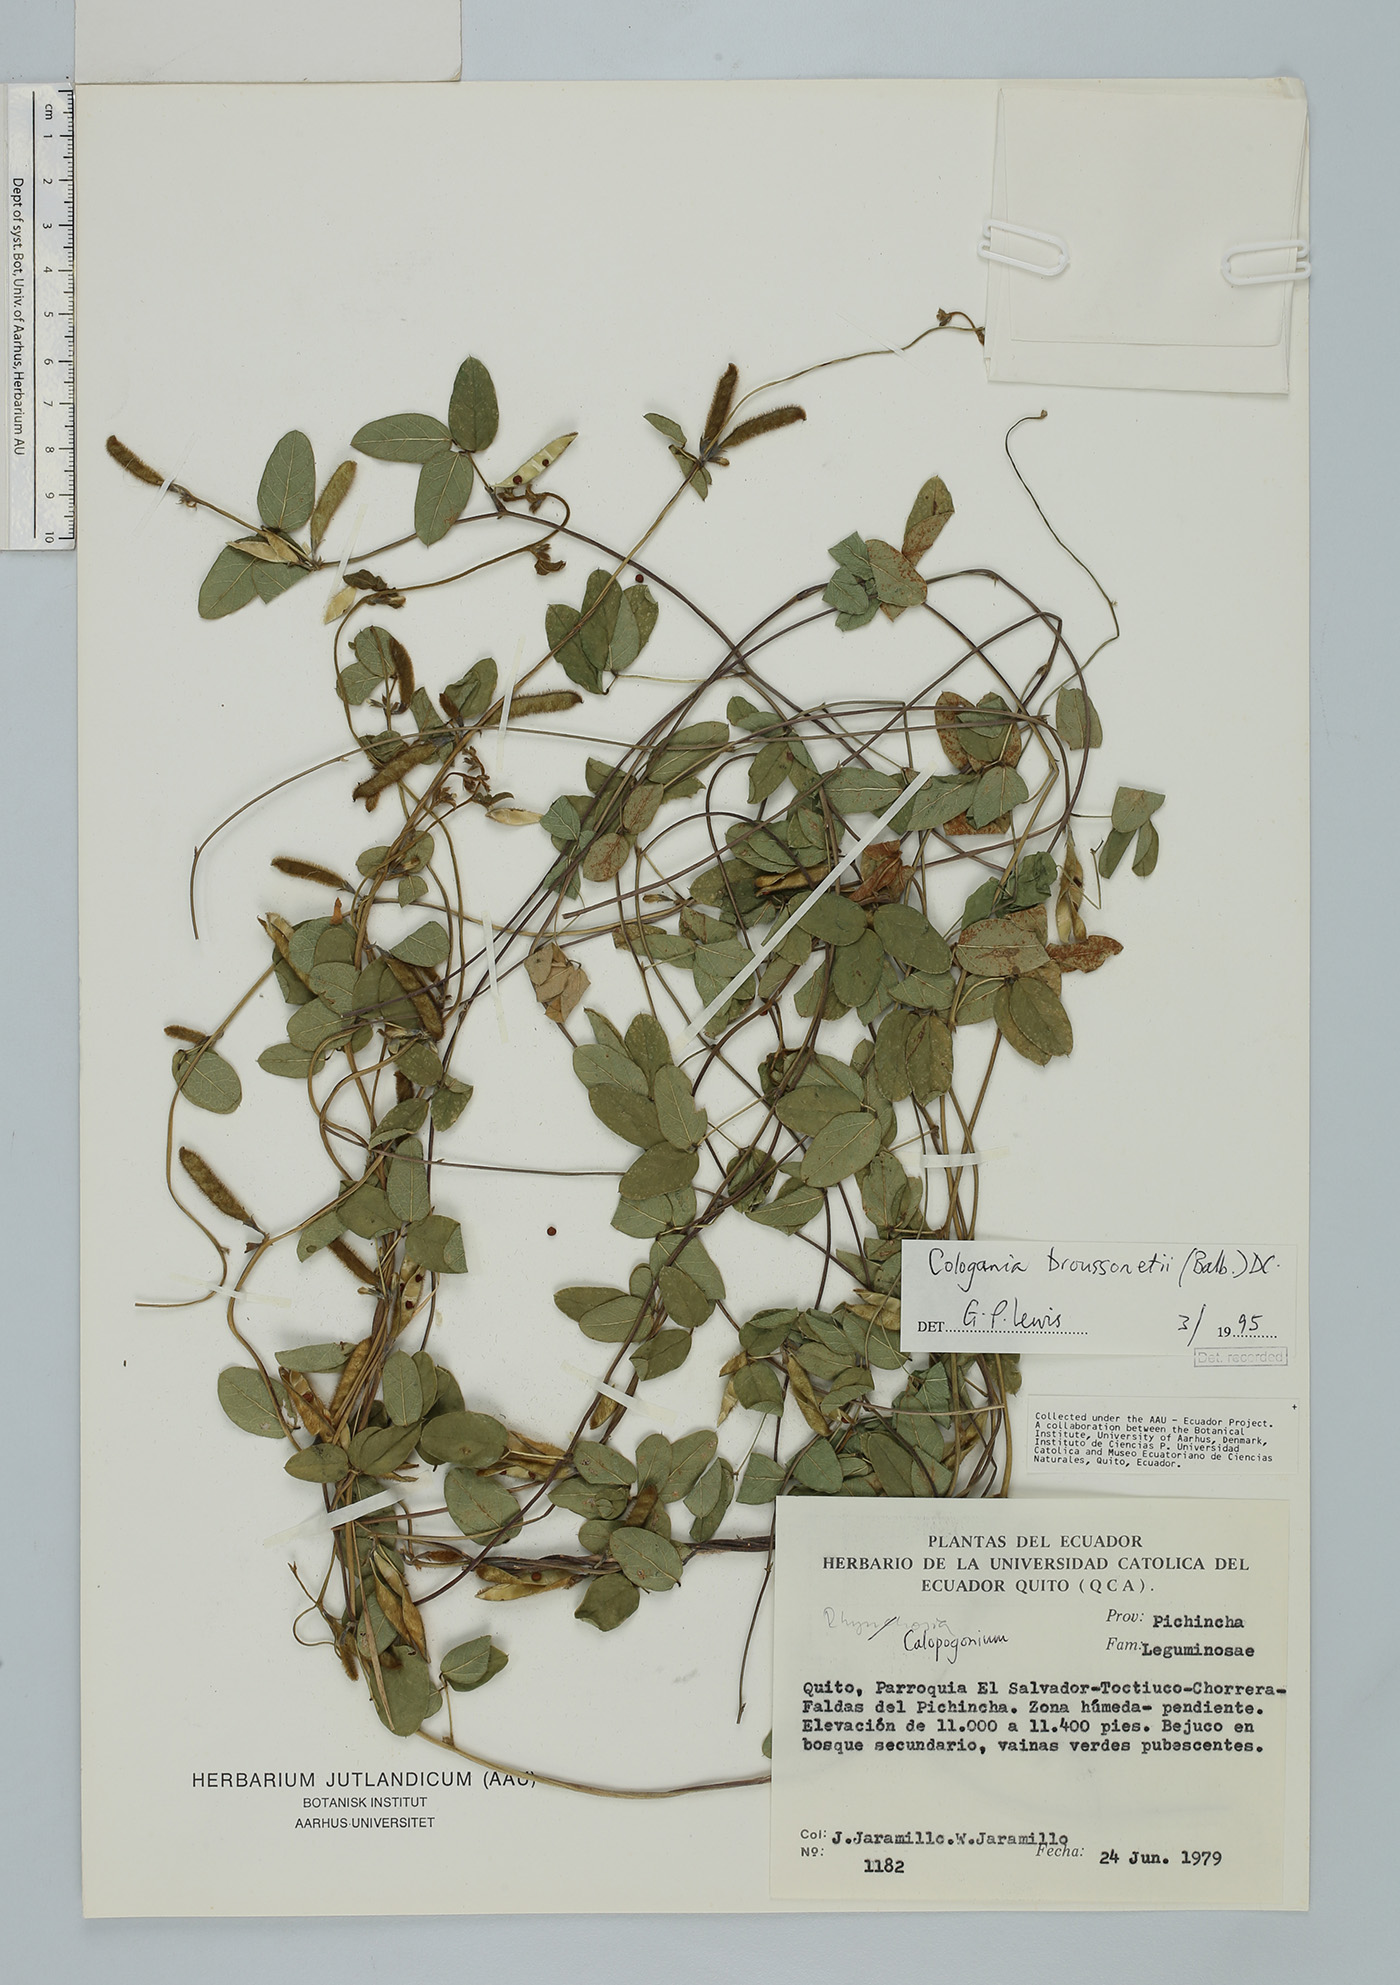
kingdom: Plantae
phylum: Tracheophyta
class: Magnoliopsida
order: Fabales
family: Fabaceae
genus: Cologania
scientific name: Cologania broussonetii
